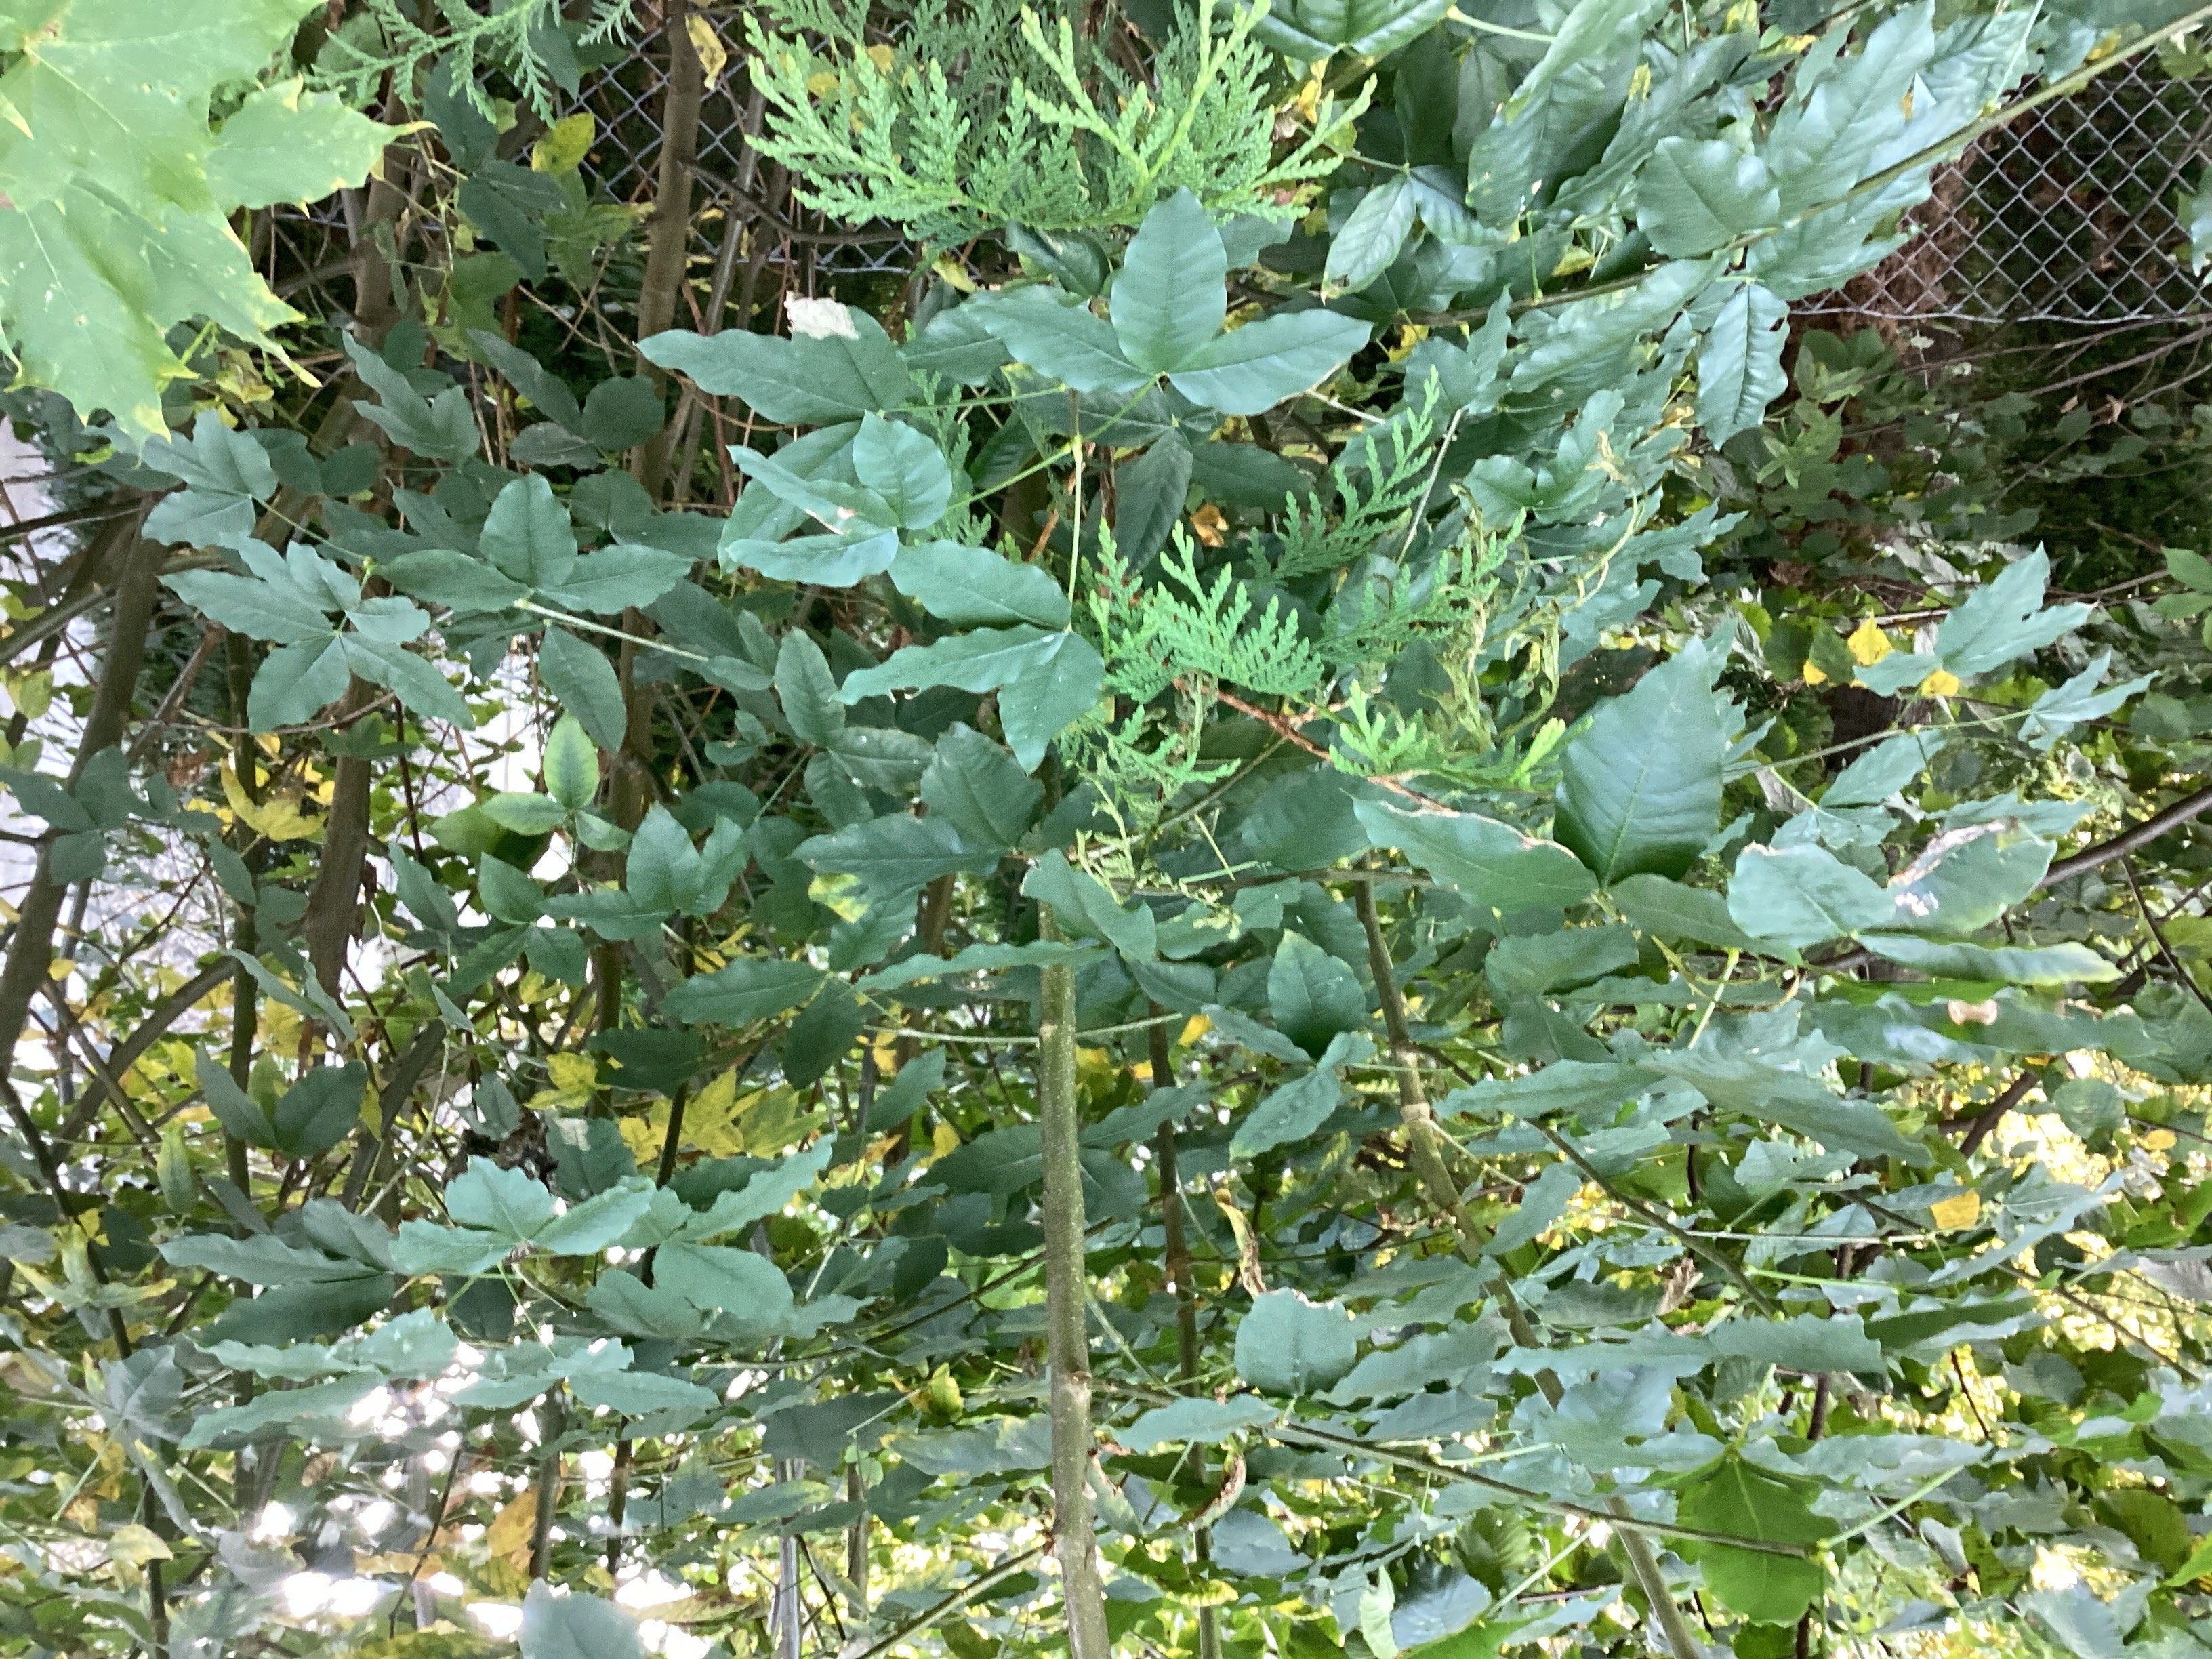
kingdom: Plantae
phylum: Tracheophyta
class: Magnoliopsida
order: Fabales
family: Fabaceae
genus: Laburnum
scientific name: Laburnum anagyroides
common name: gullregn
